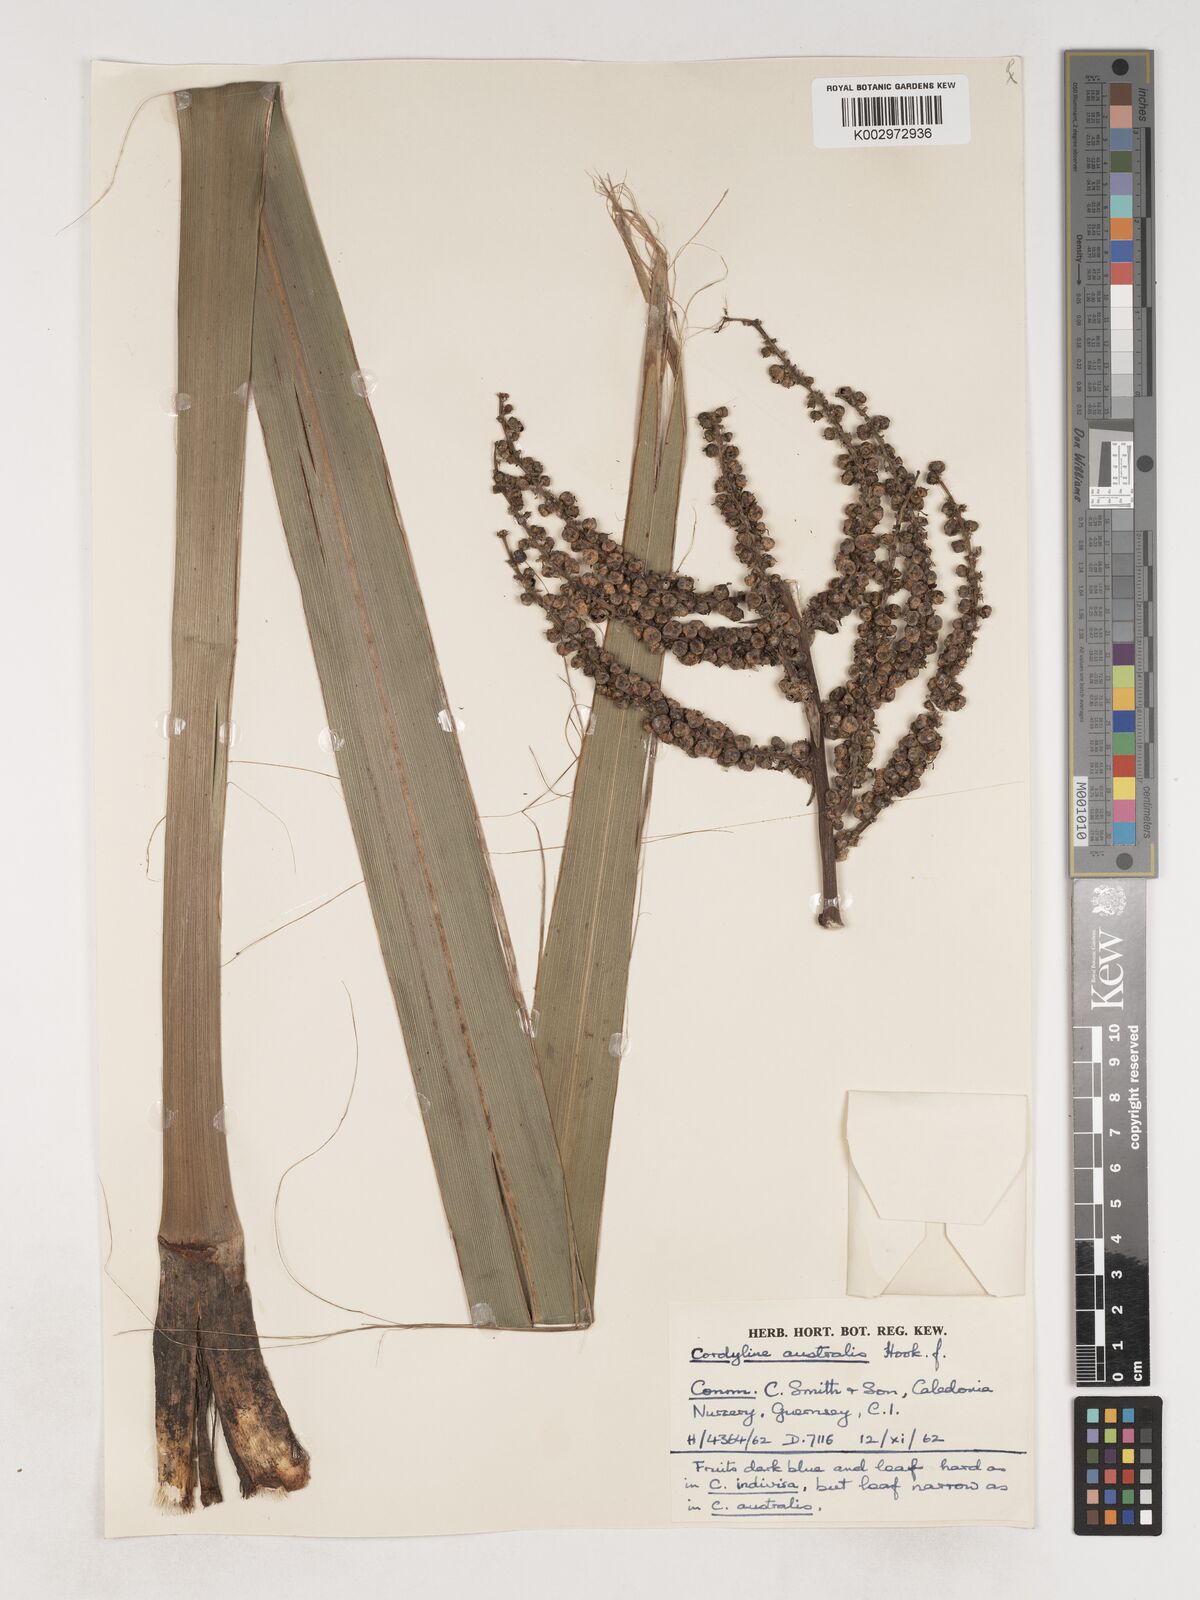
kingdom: Plantae
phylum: Tracheophyta
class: Liliopsida
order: Asparagales
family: Asparagaceae
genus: Cordyline
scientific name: Cordyline australis
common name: Cabbage-palm
